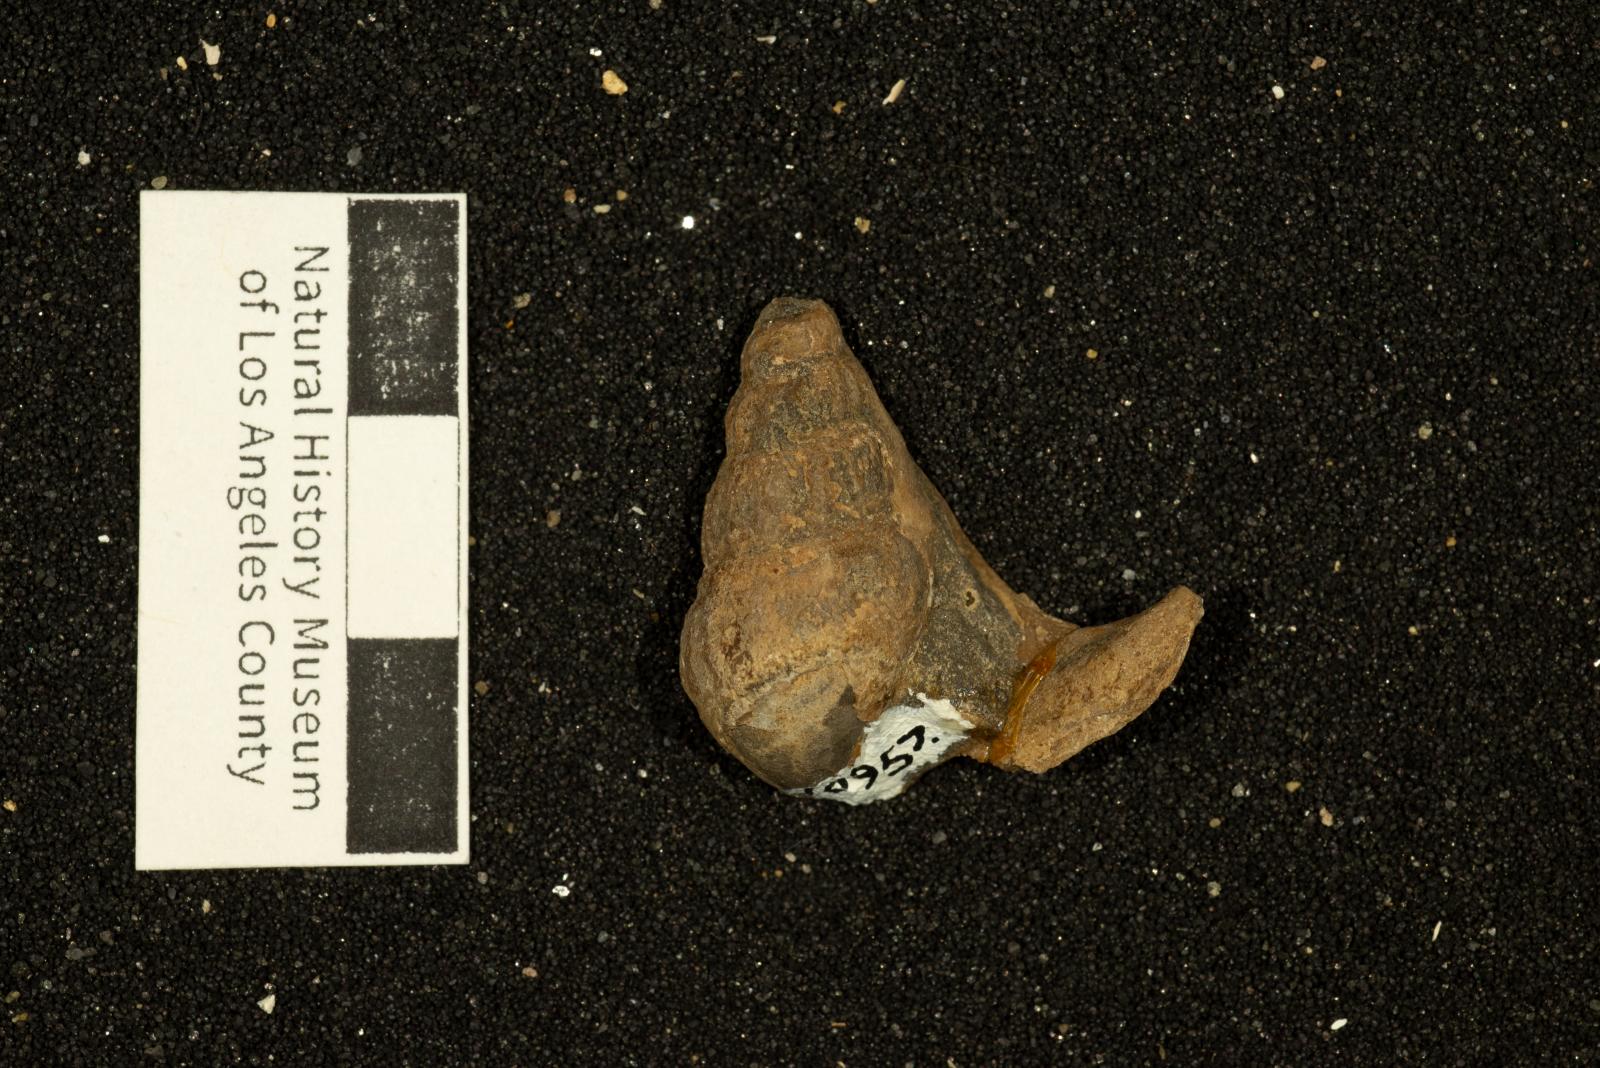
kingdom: Animalia
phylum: Mollusca
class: Gastropoda
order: Littorinimorpha
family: Aporrhaidae
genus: Alarimella
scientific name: Alarimella veta
